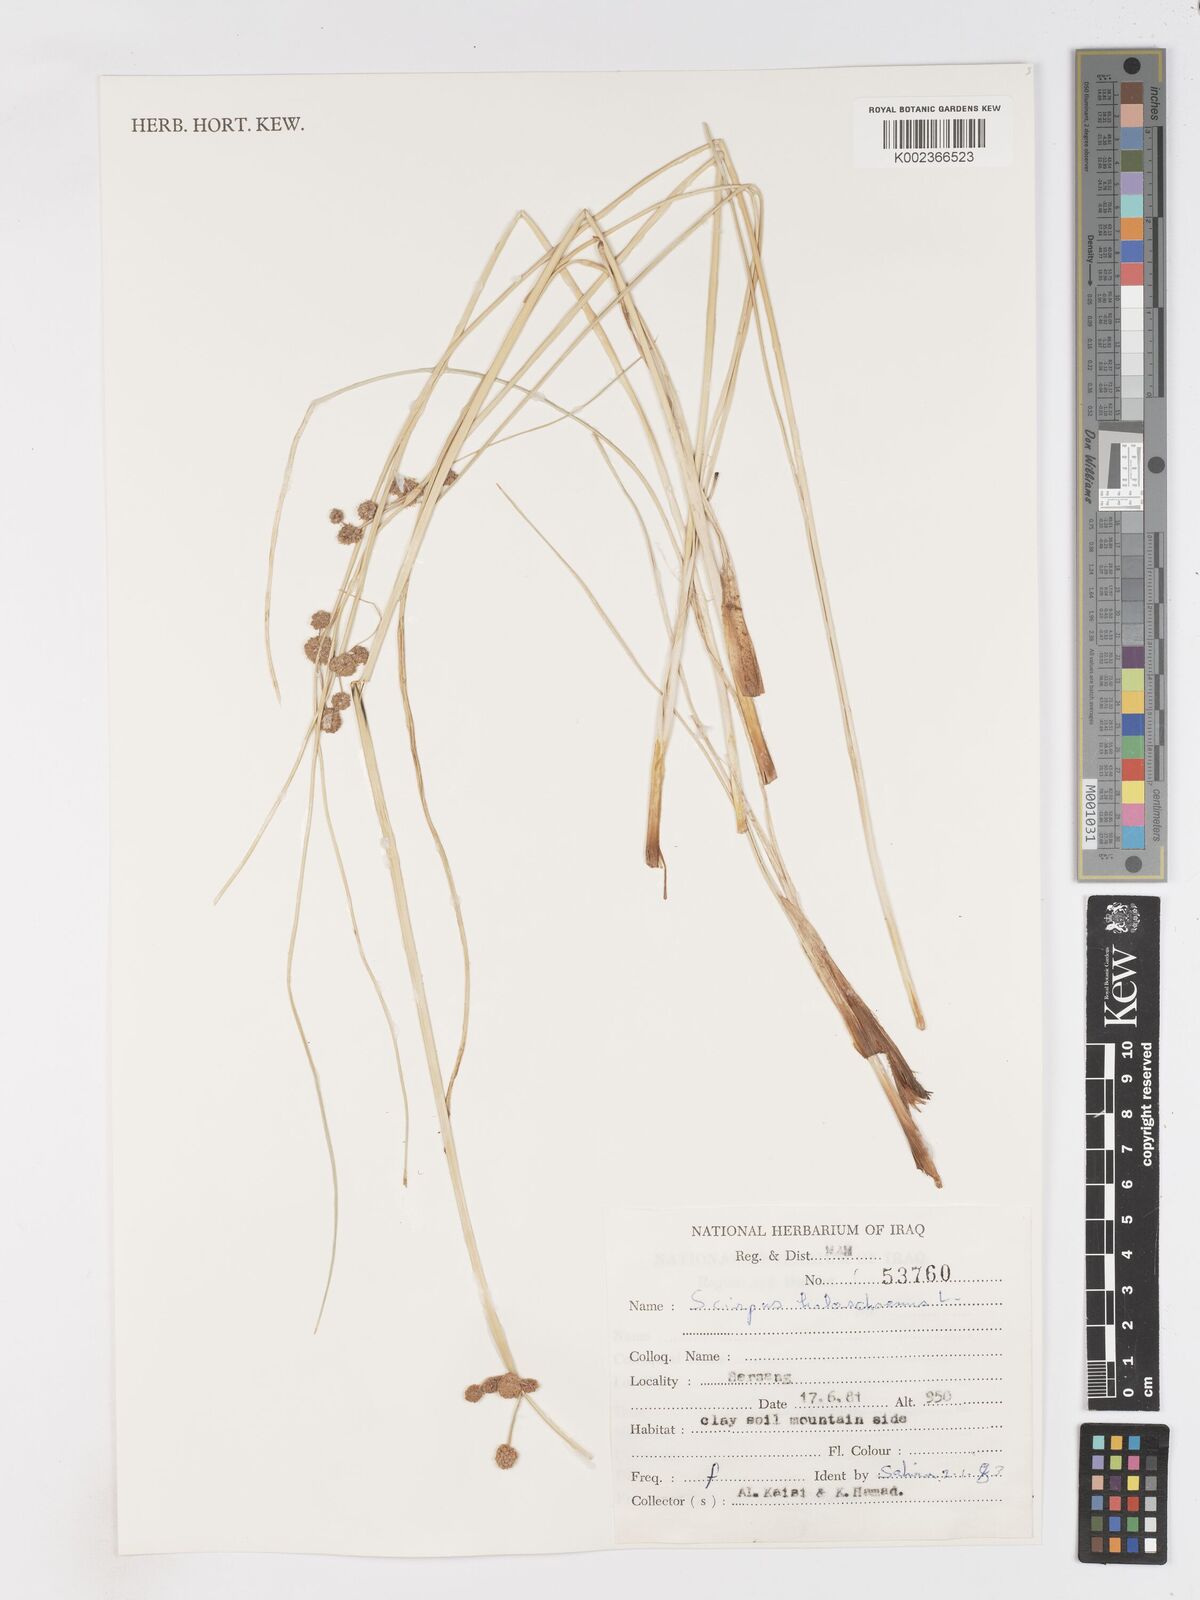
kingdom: Plantae
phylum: Tracheophyta
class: Liliopsida
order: Poales
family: Cyperaceae
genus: Scirpoides
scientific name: Scirpoides holoschoenus
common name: Round-headed club-rush
